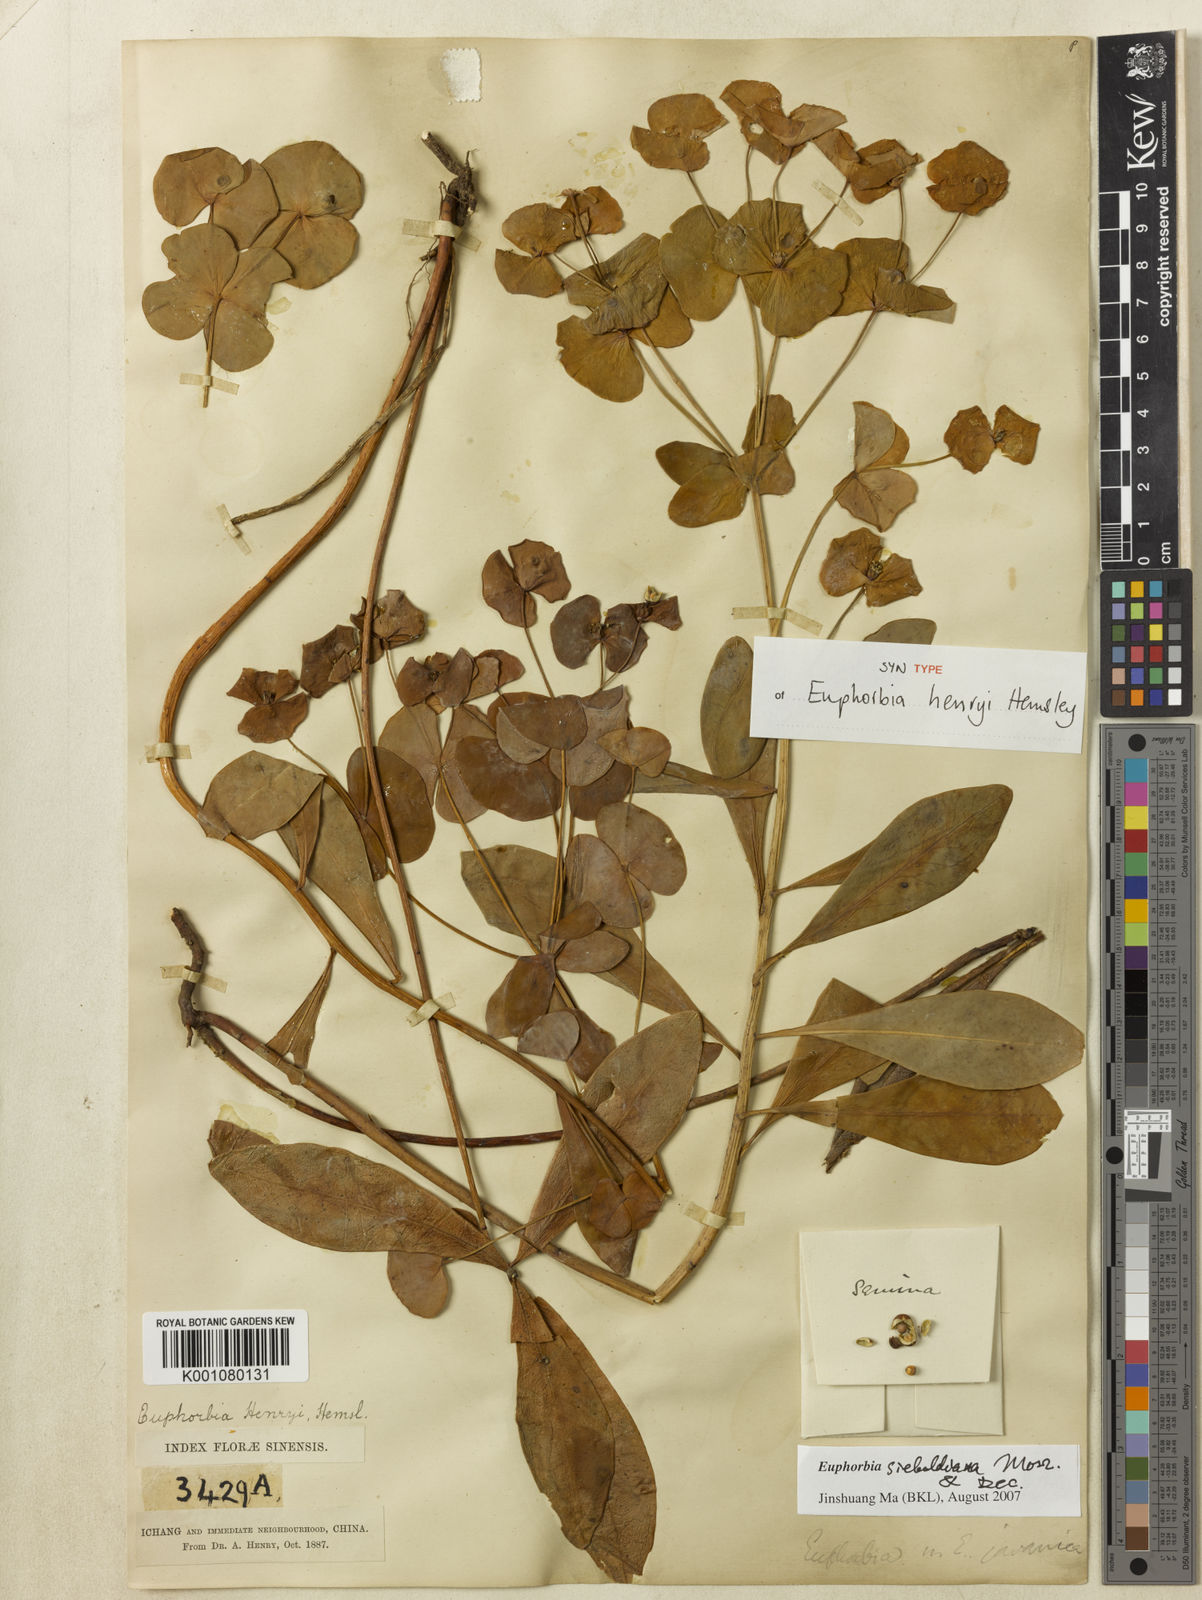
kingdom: Plantae
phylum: Tracheophyta
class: Magnoliopsida
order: Malpighiales
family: Euphorbiaceae
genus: Euphorbia
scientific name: Euphorbia sieboldiana
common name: Siebold's spurge
